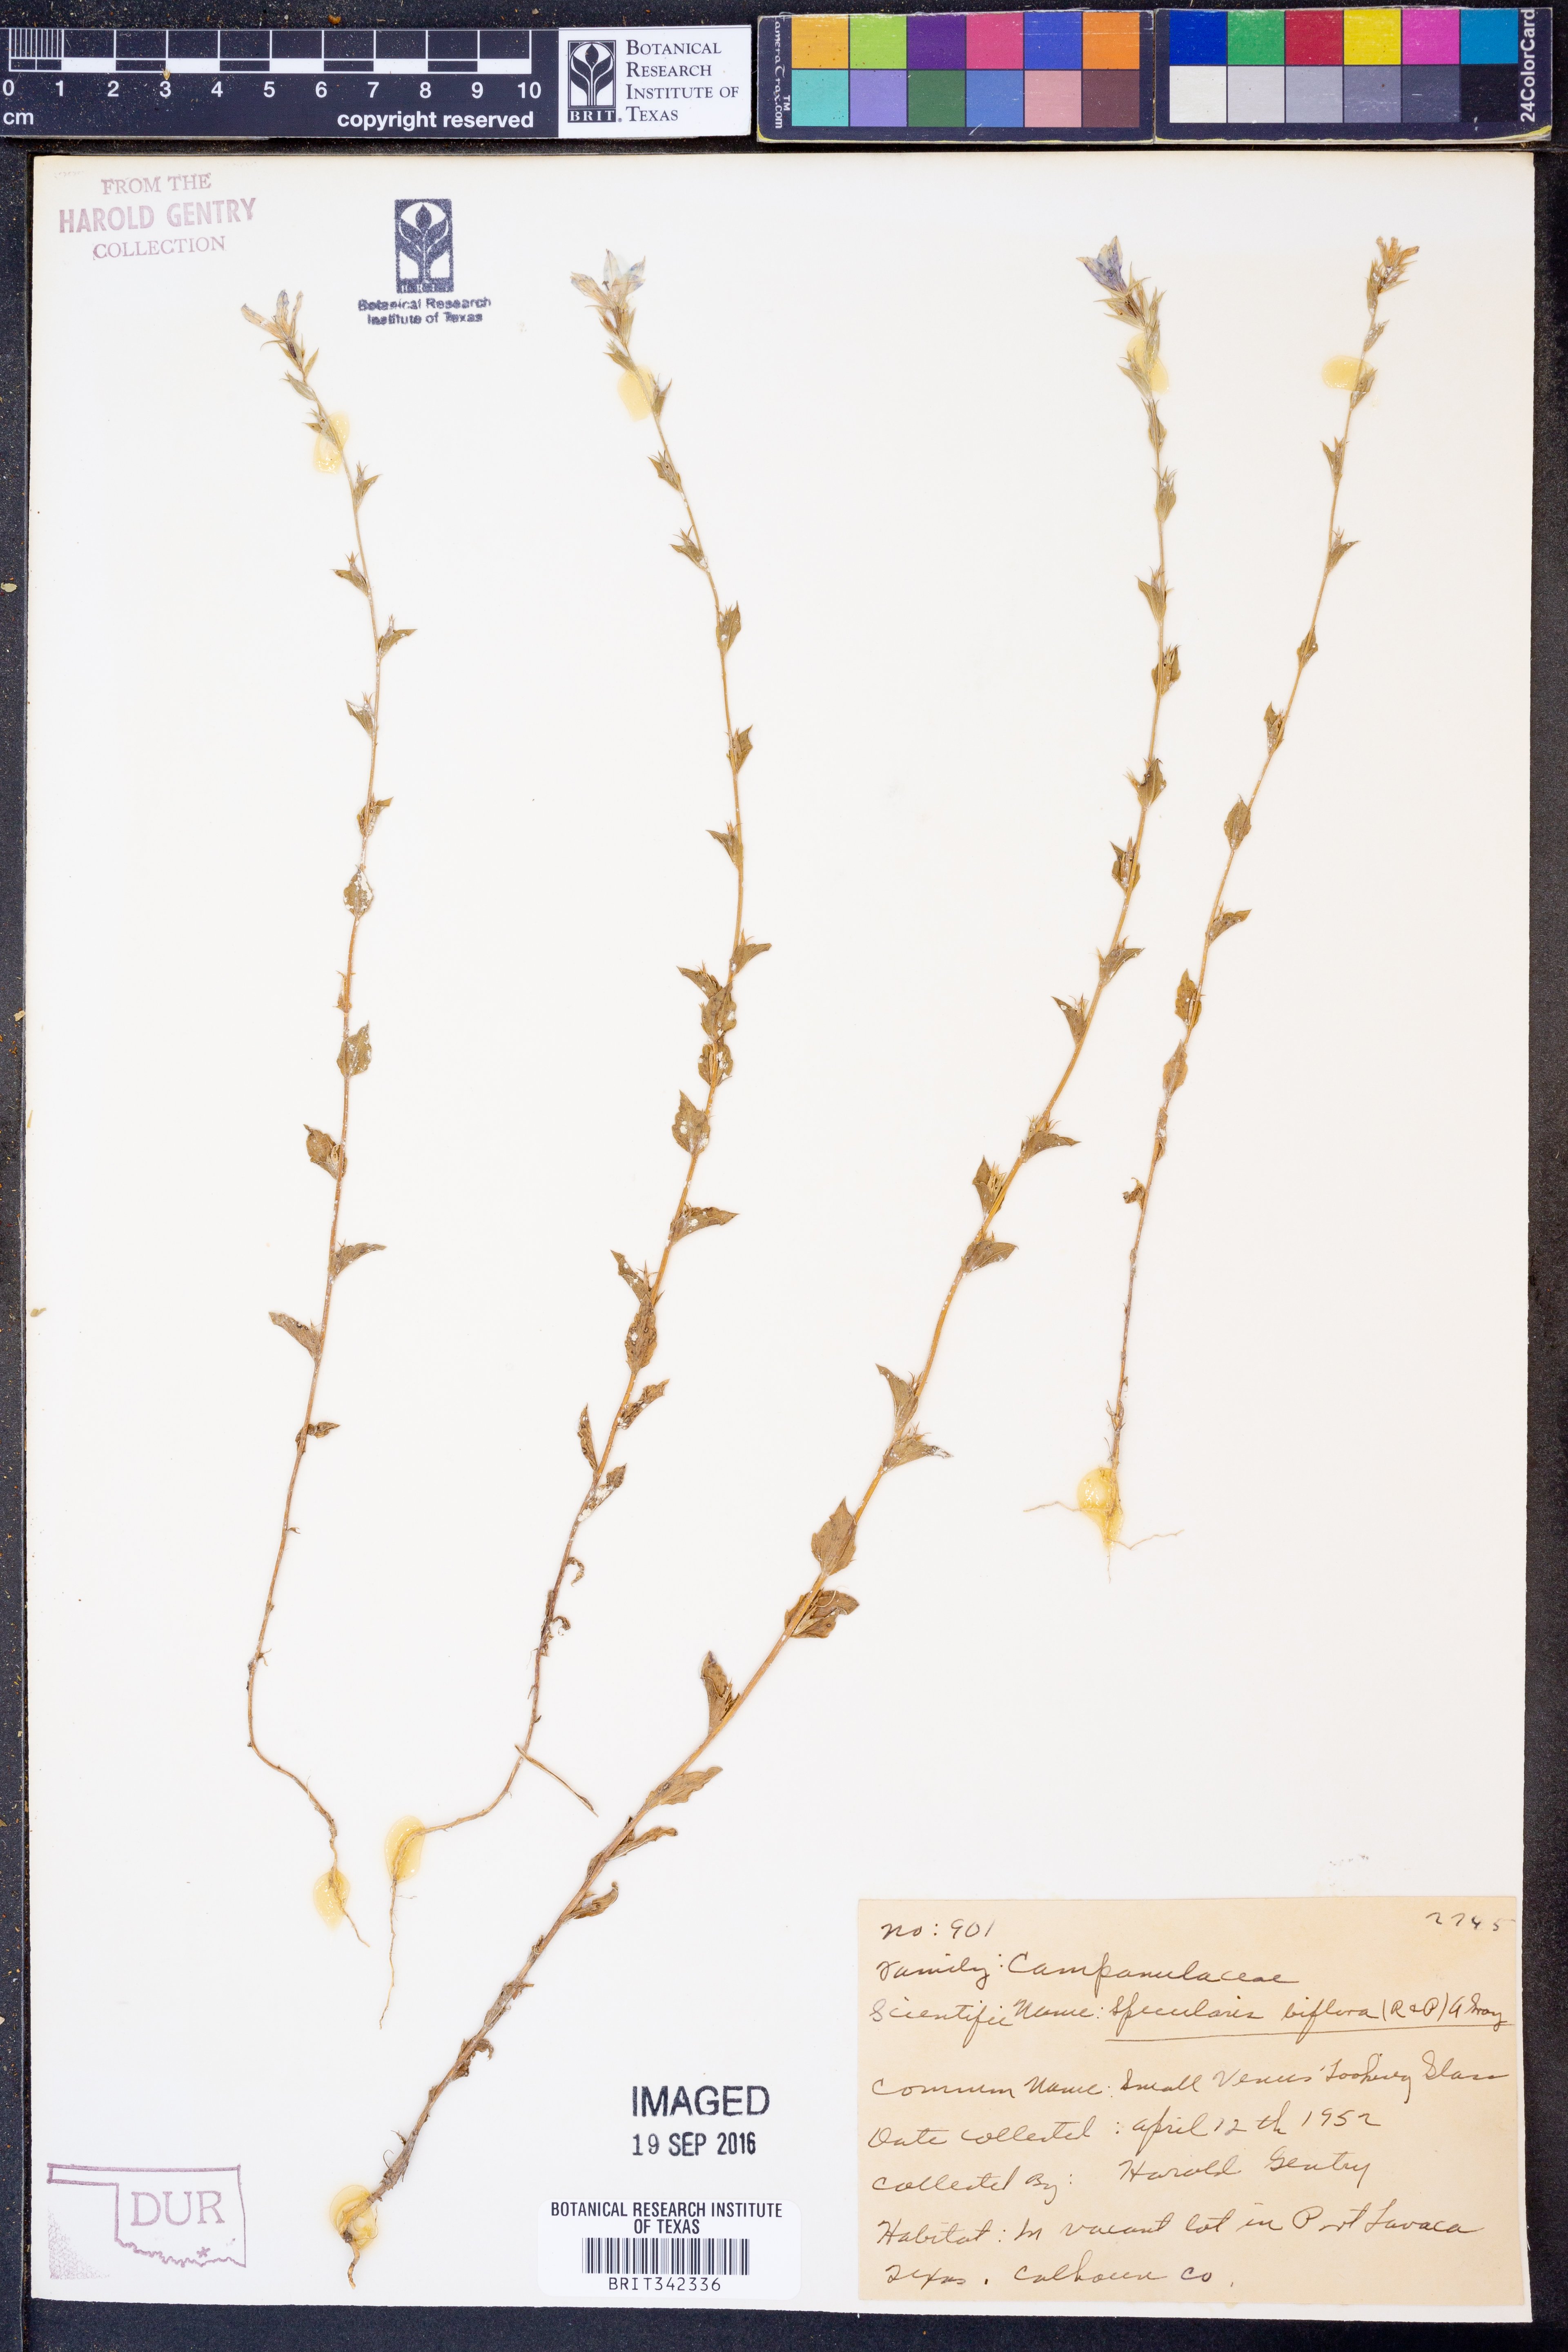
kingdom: Plantae
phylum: Tracheophyta
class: Magnoliopsida
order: Asterales
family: Campanulaceae
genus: Triodanis
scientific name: Triodanis perfoliata
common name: Clasping venus' looking-glass
